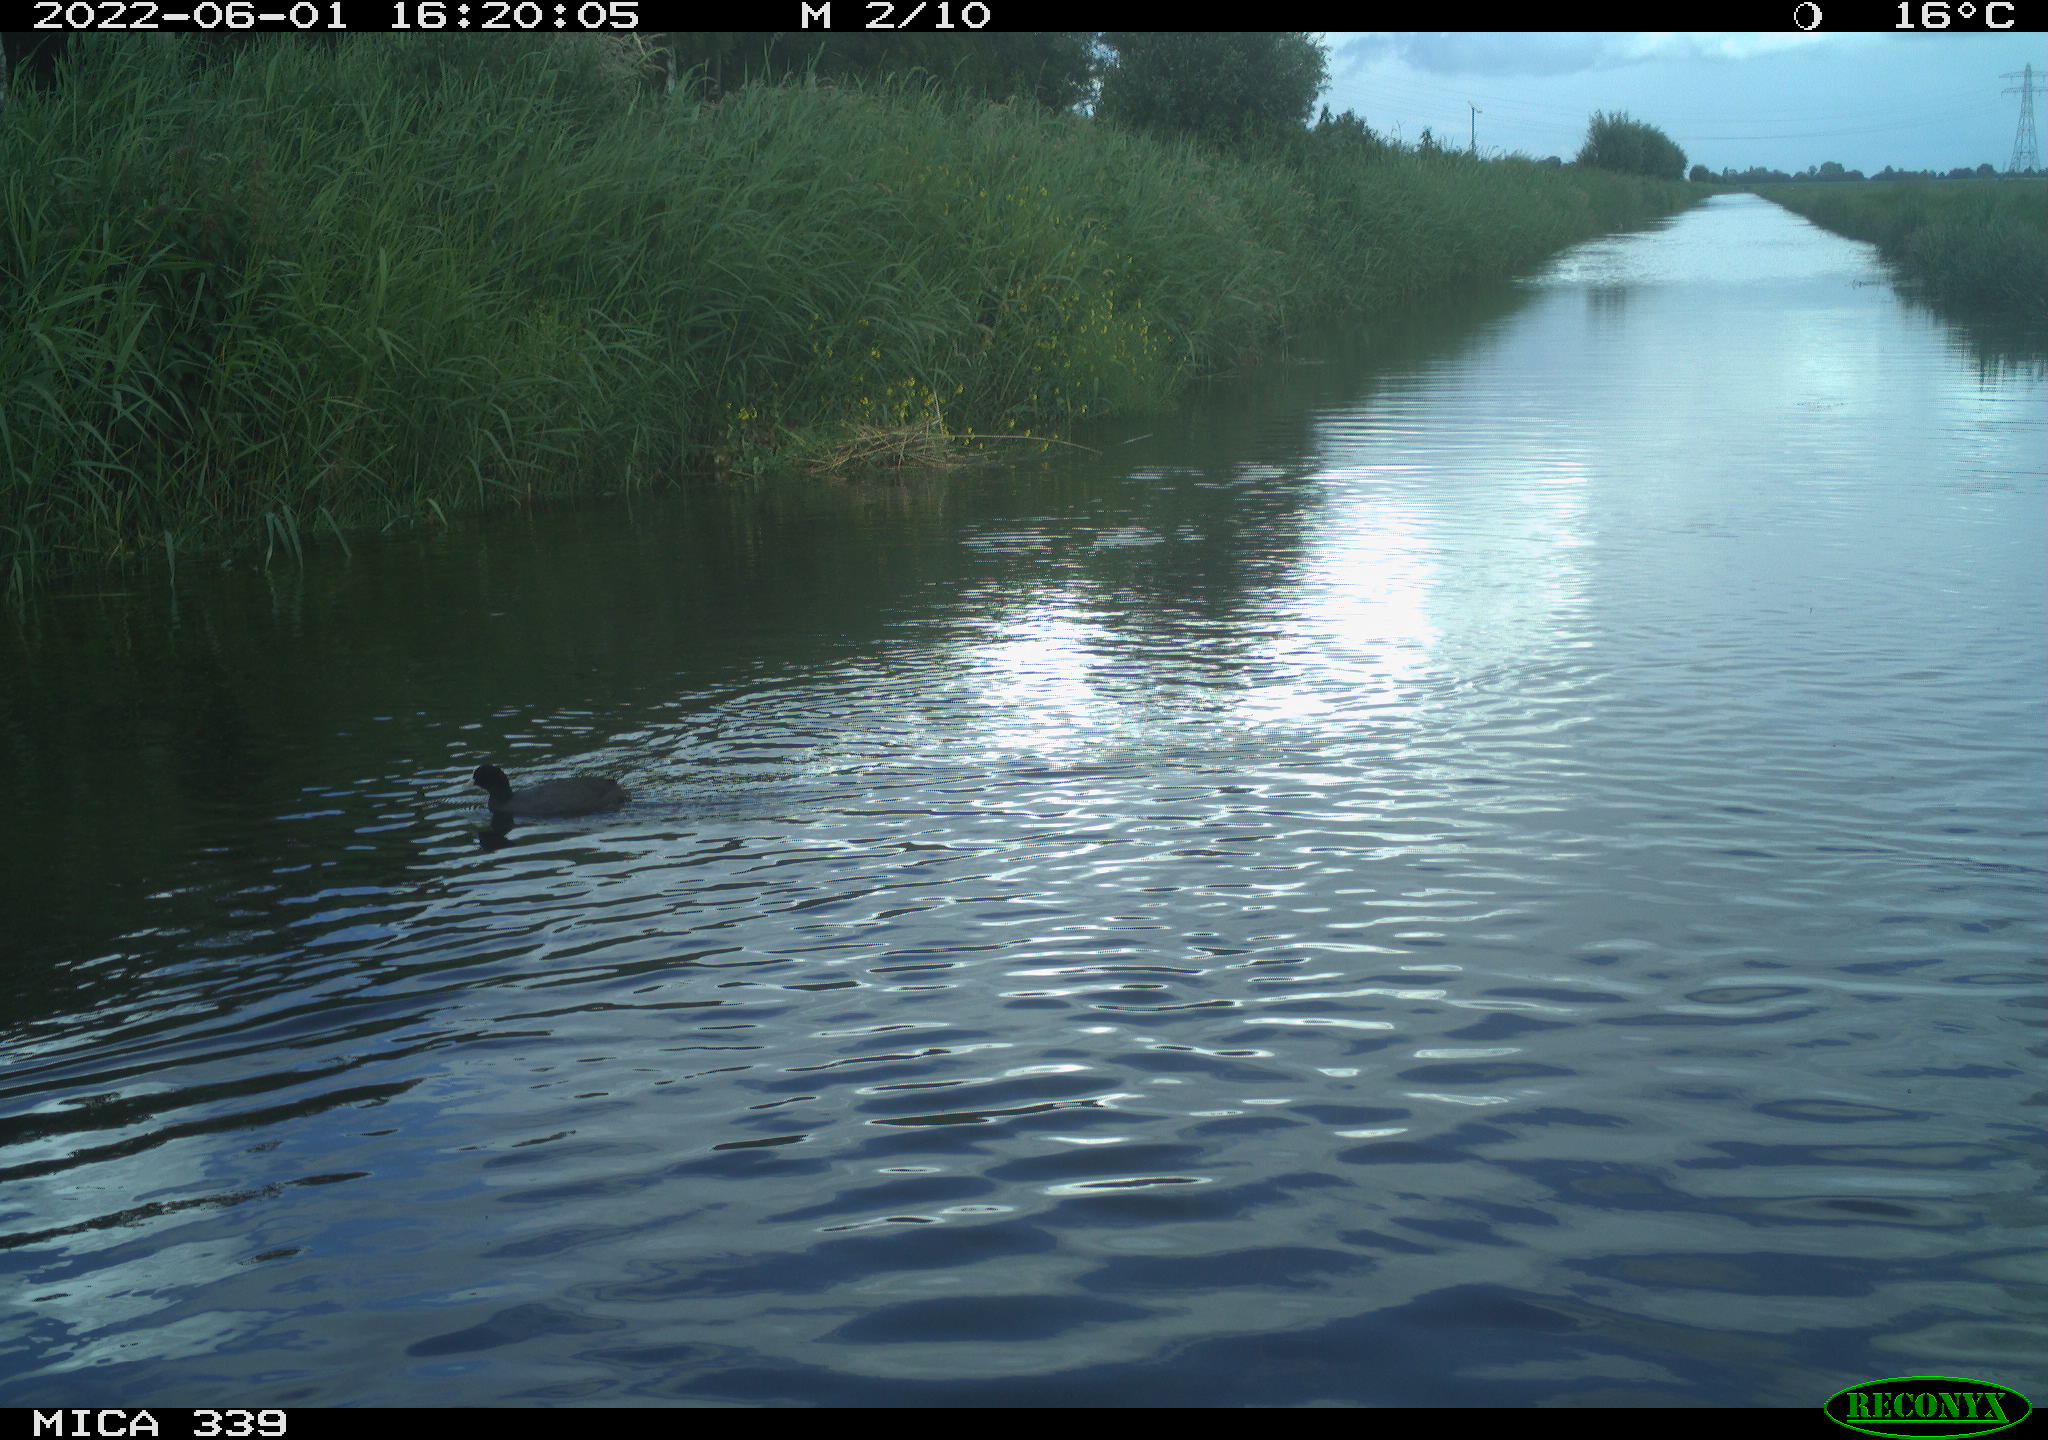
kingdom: Animalia
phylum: Chordata
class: Aves
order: Gruiformes
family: Rallidae
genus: Fulica
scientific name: Fulica atra
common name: Eurasian coot
